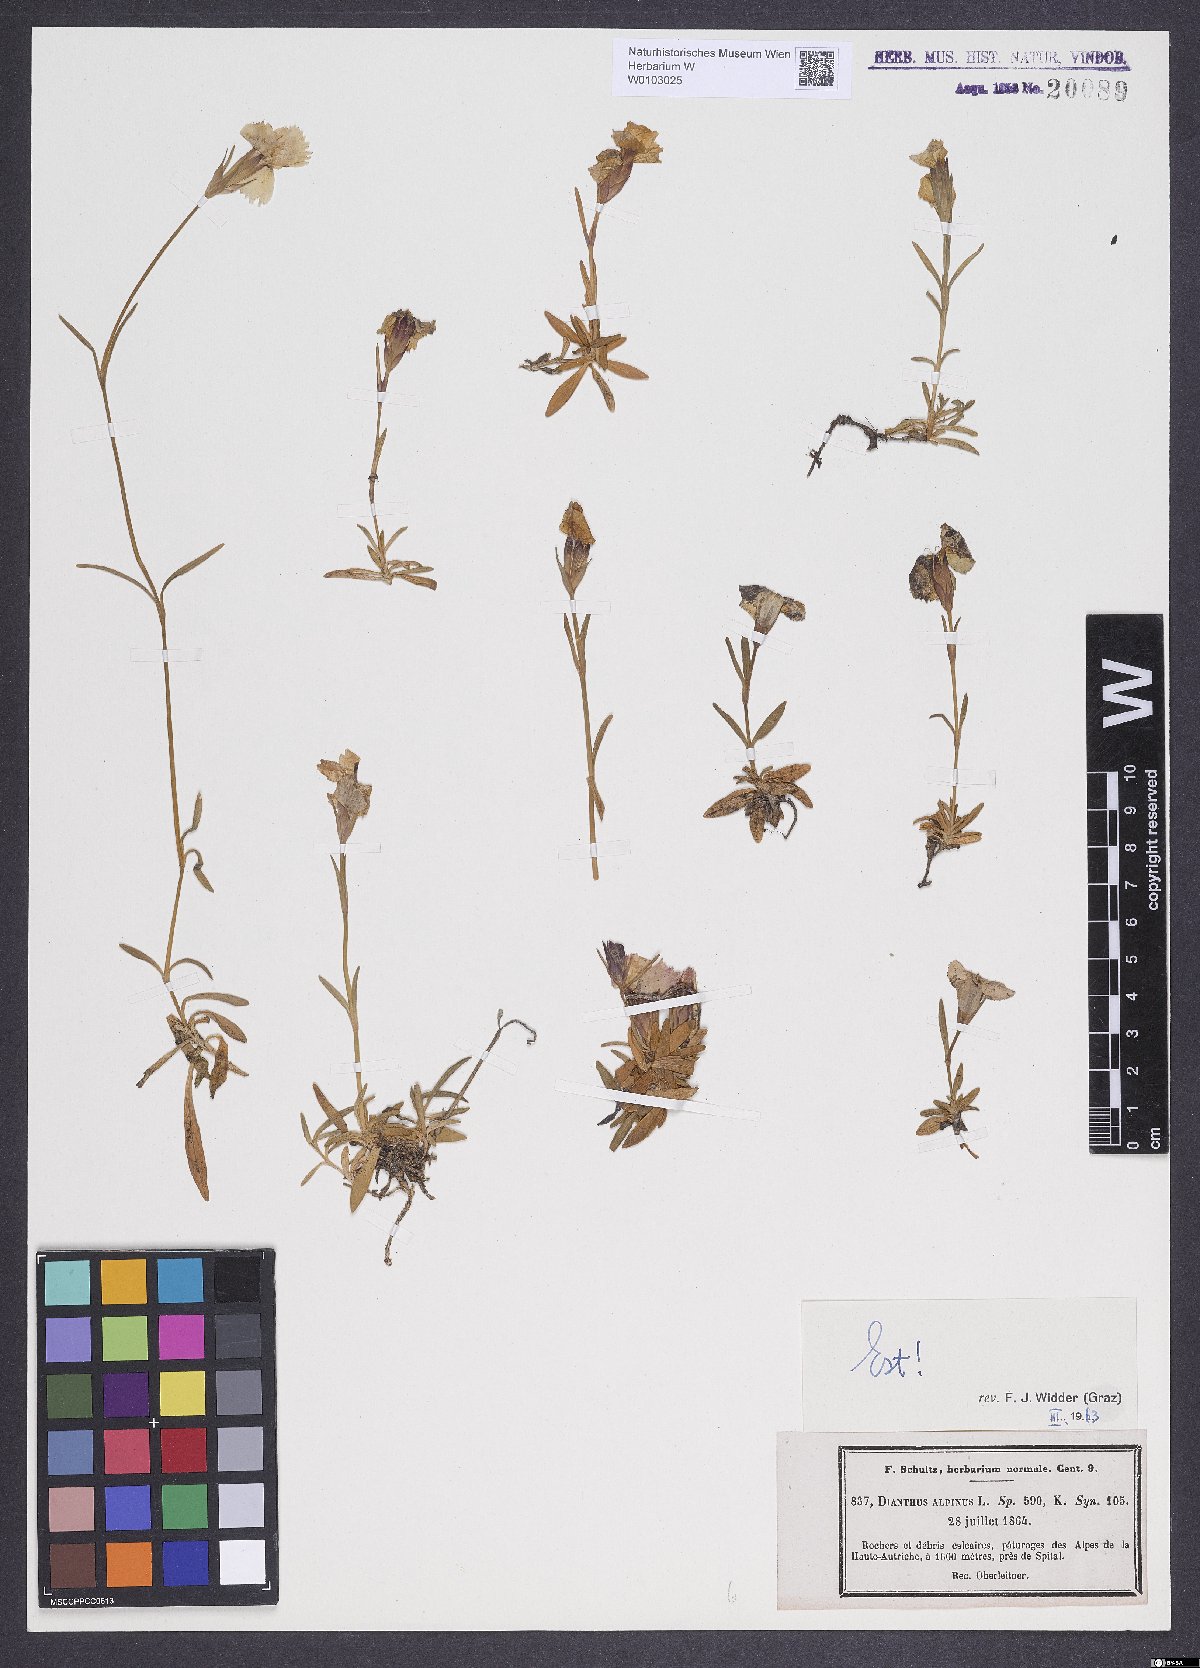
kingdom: Plantae
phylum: Tracheophyta
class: Magnoliopsida
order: Caryophyllales
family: Caryophyllaceae
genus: Dianthus
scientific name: Dianthus alpinus
